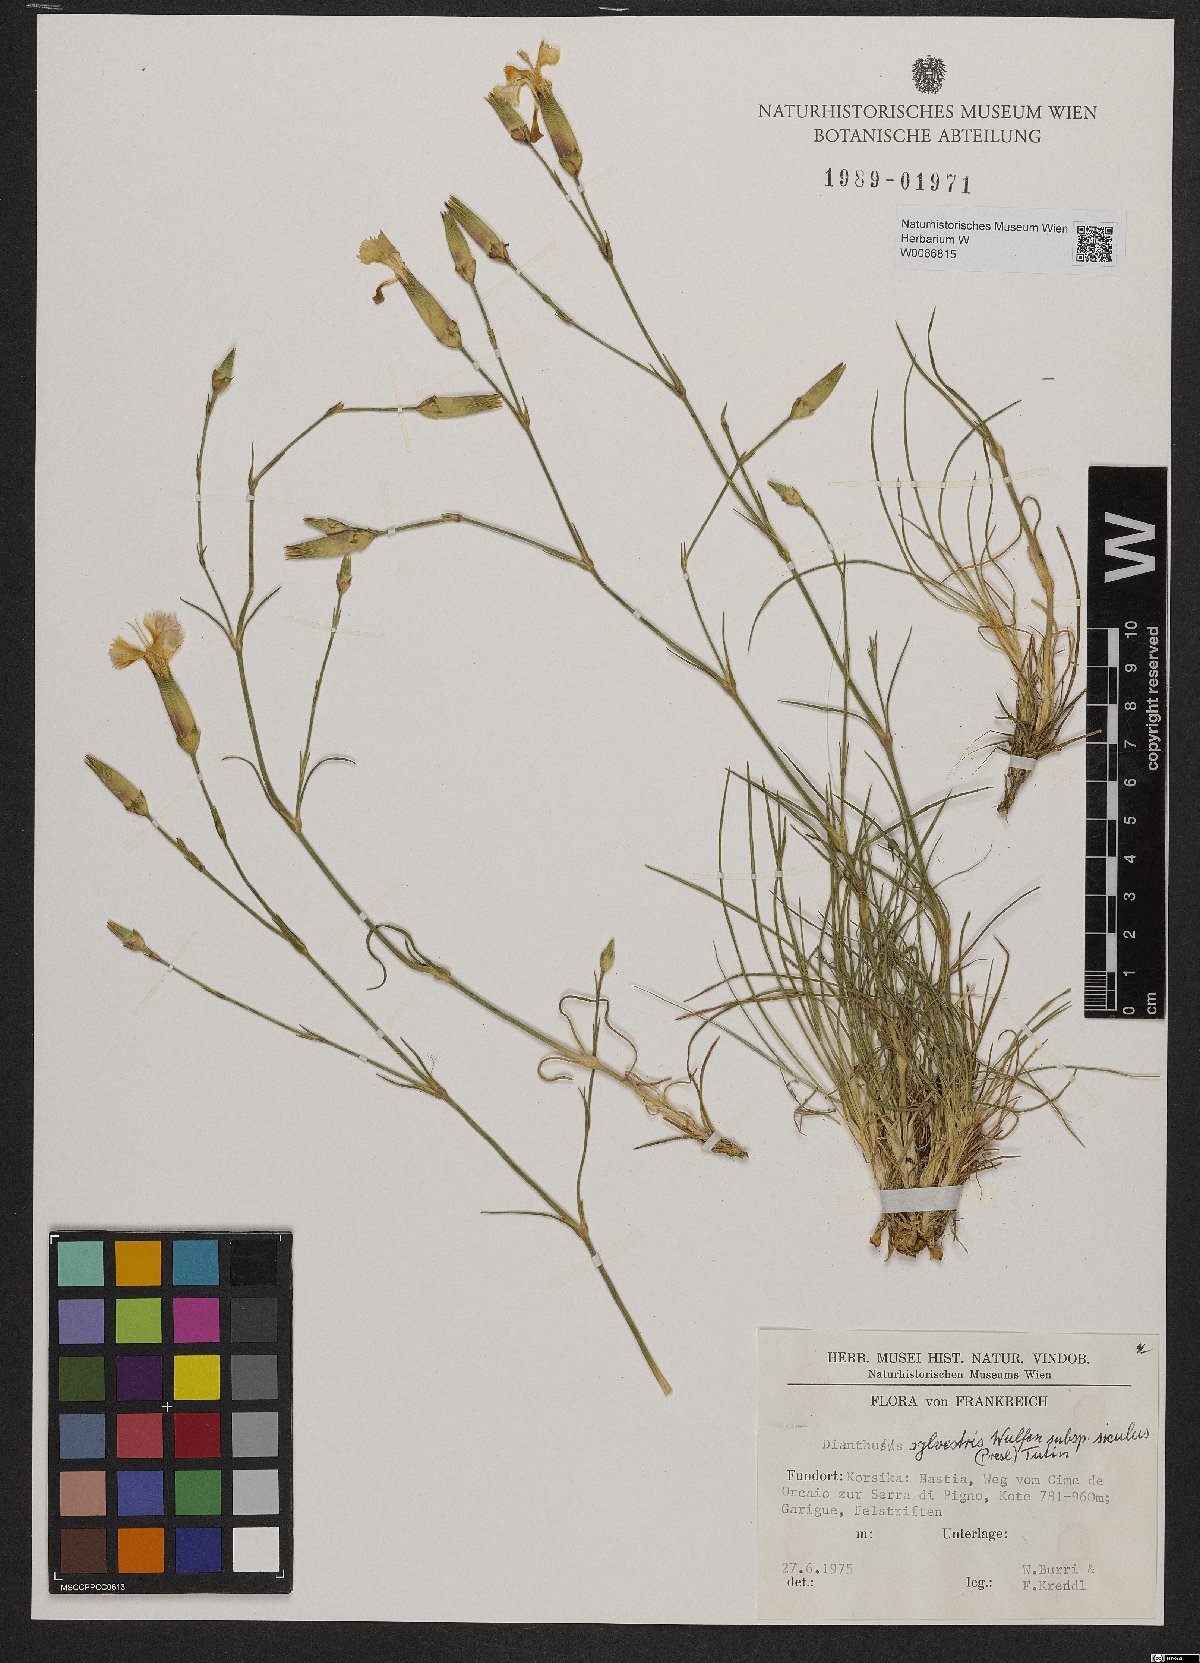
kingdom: Plantae
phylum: Tracheophyta
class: Magnoliopsida
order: Caryophyllales
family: Caryophyllaceae
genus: Dianthus
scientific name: Dianthus siculus
